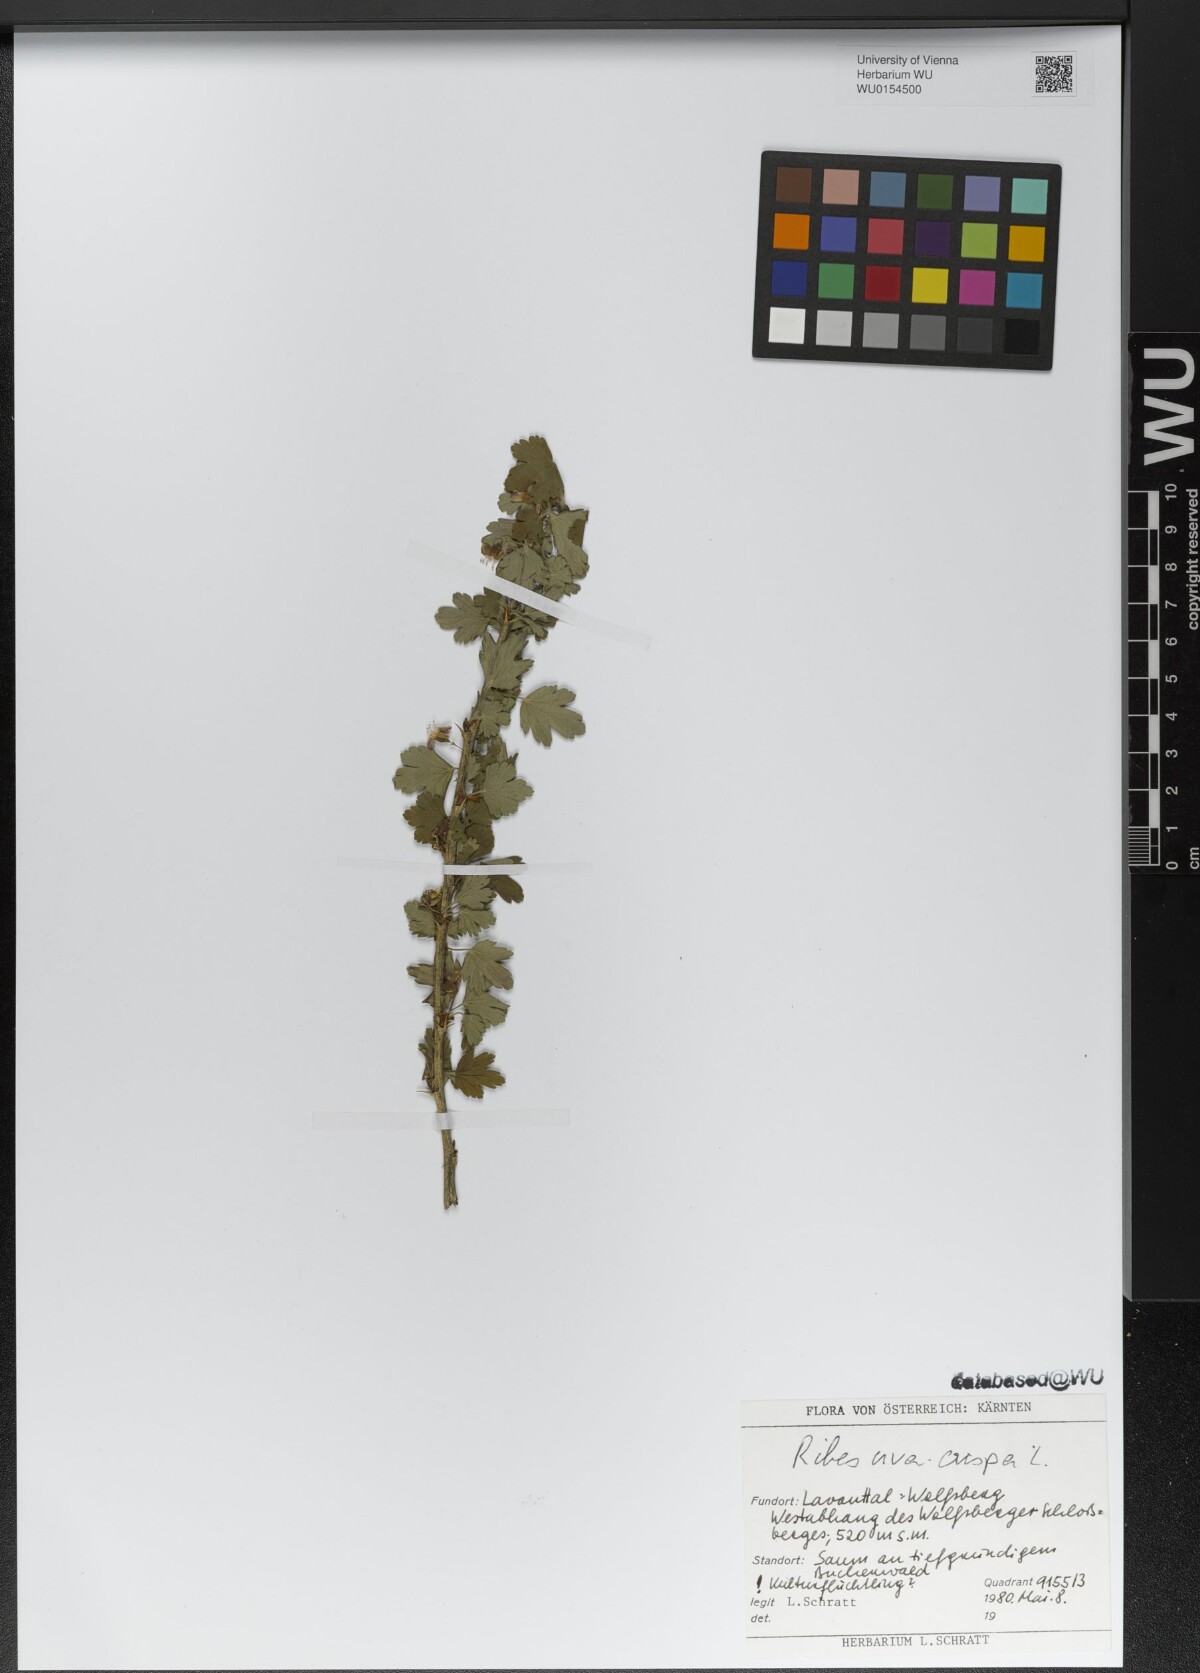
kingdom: Plantae
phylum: Tracheophyta
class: Magnoliopsida
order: Saxifragales
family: Grossulariaceae
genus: Ribes
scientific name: Ribes uva-crispa
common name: Gooseberry
